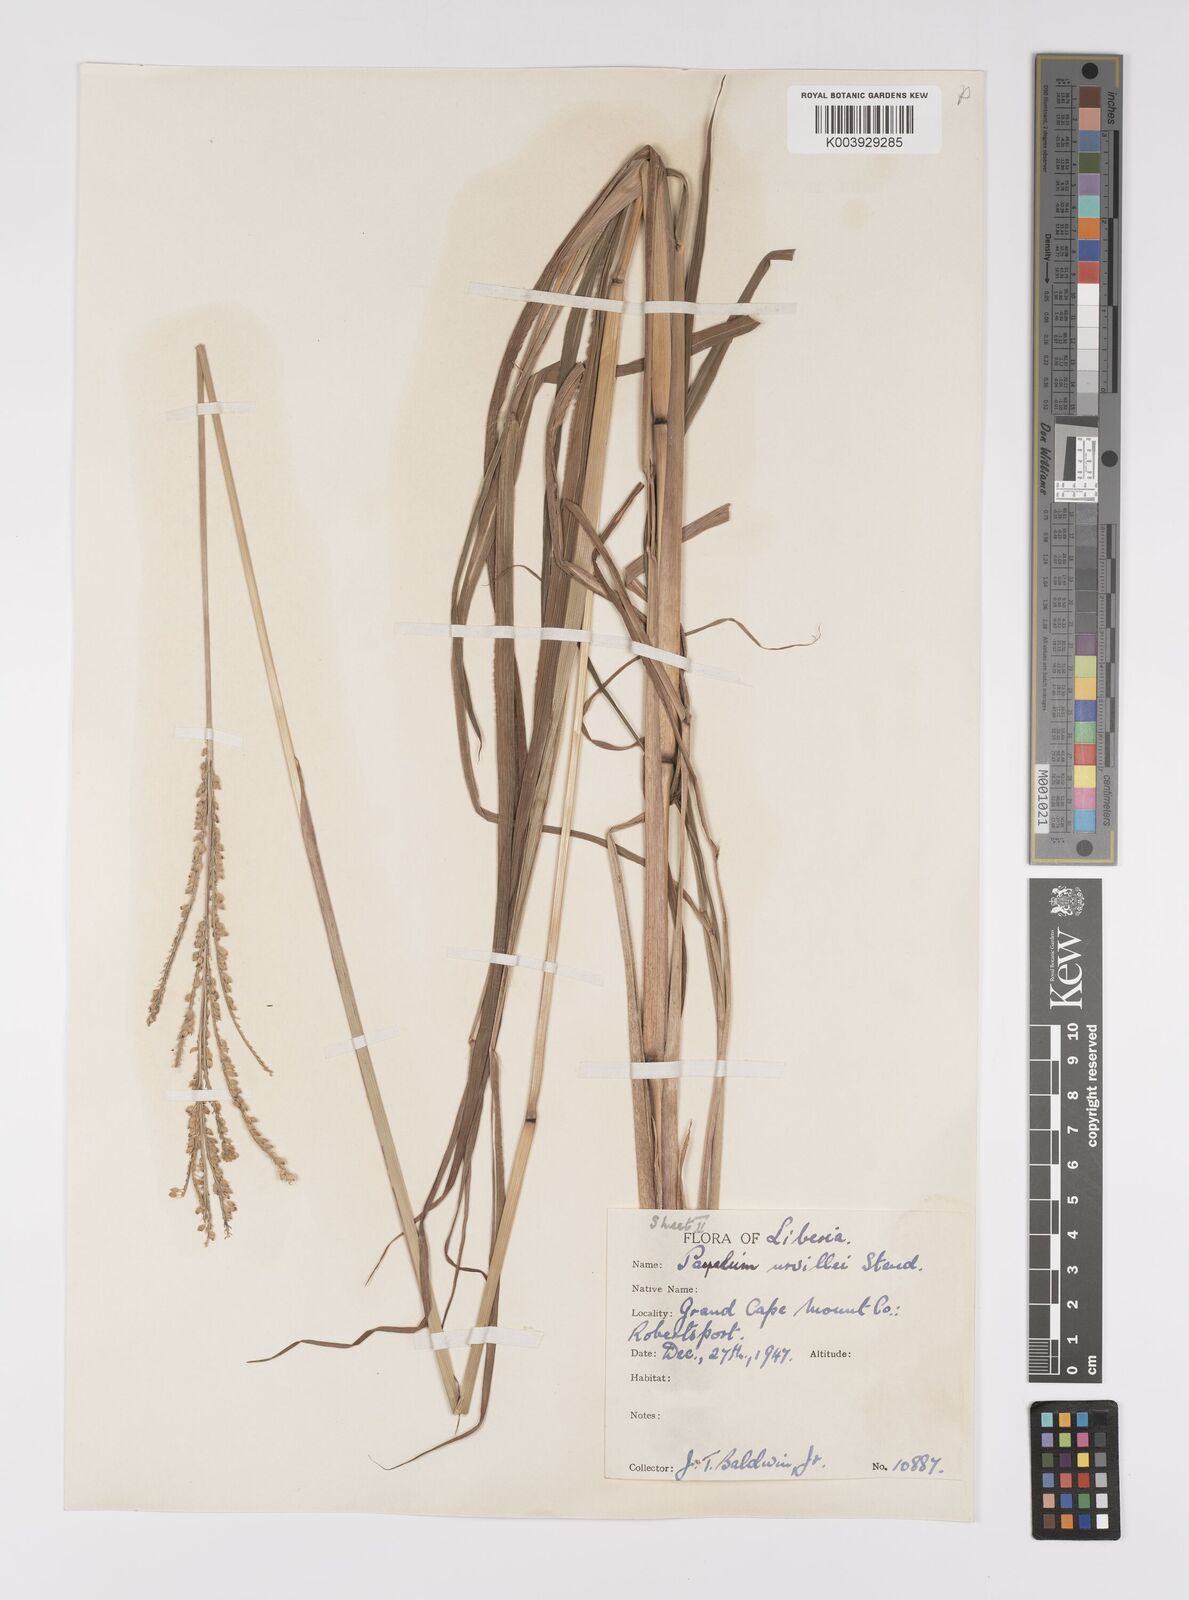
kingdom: Plantae
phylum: Tracheophyta
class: Liliopsida
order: Poales
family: Poaceae
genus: Paspalum
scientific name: Paspalum urvillei
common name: Vasey's grass
